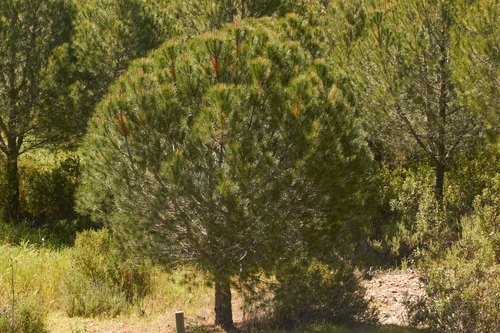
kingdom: Plantae
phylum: Tracheophyta
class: Pinopsida
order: Pinales
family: Pinaceae
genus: Pinus
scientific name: Pinus pinea
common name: Italian stone pine
